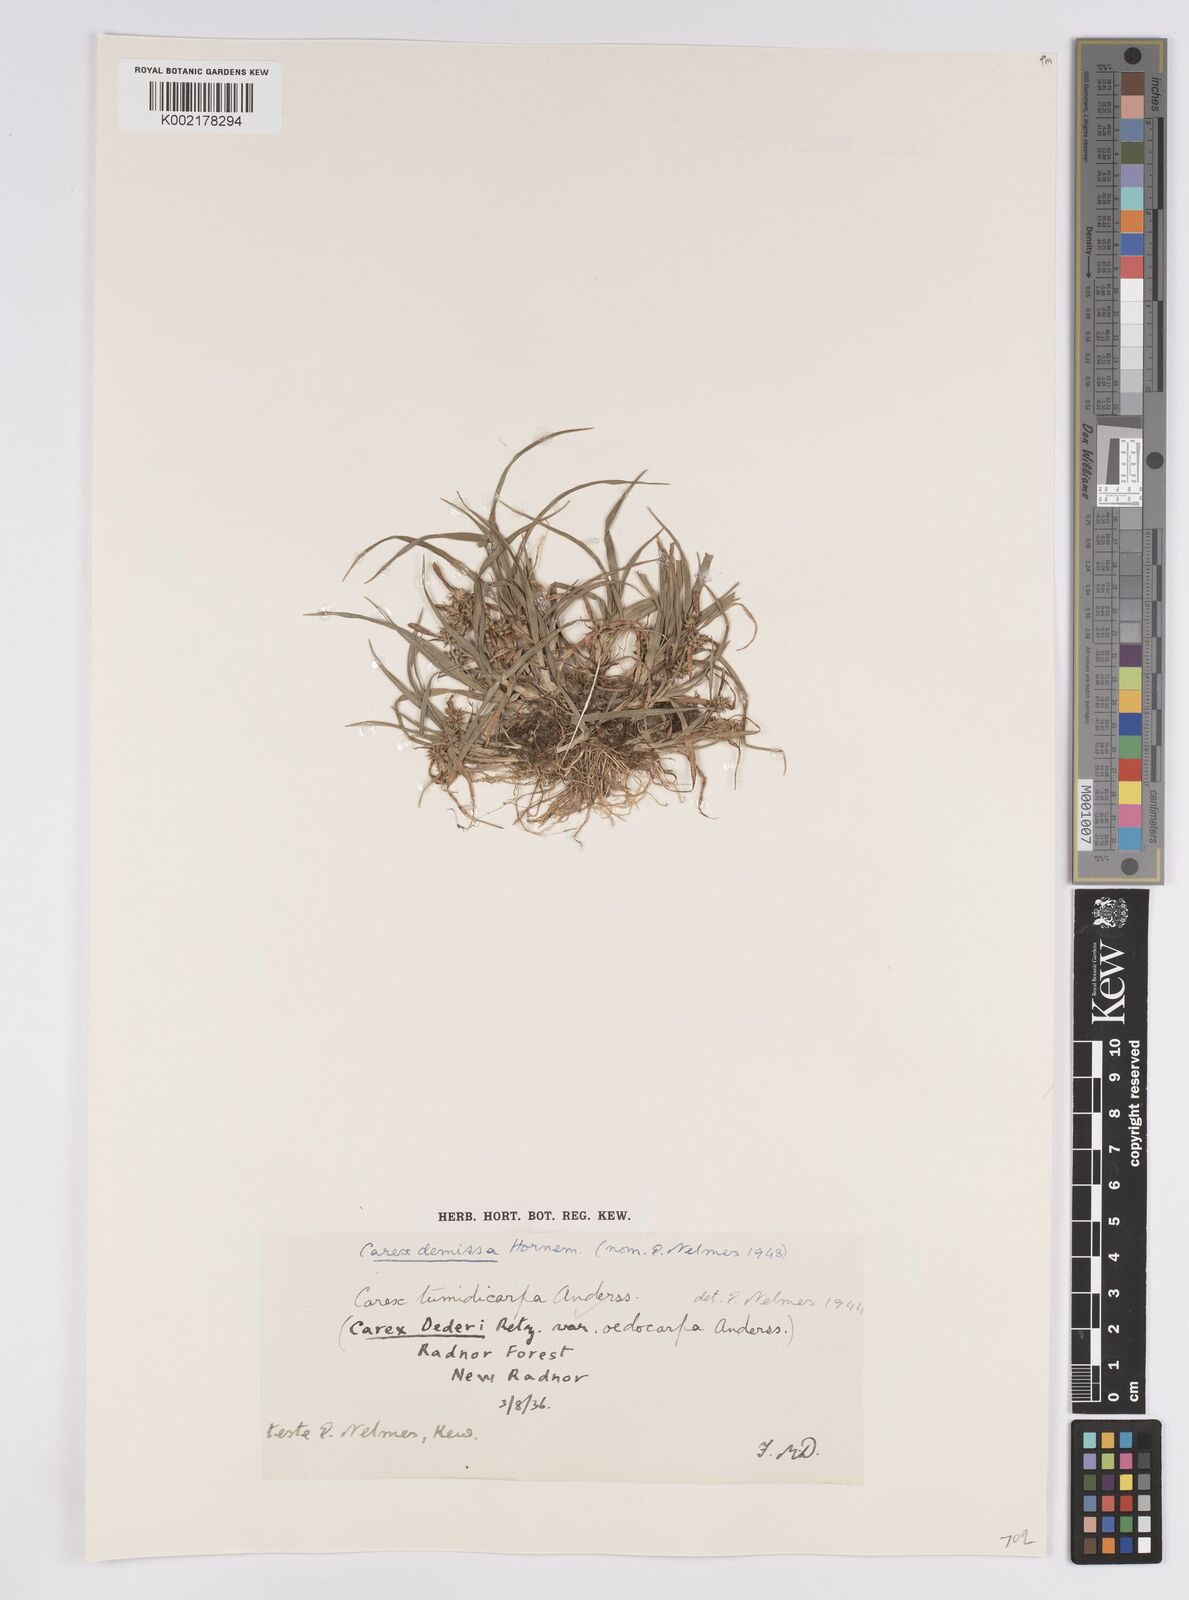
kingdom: Plantae
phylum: Tracheophyta
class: Liliopsida
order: Poales
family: Cyperaceae
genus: Carex
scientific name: Carex demissa
